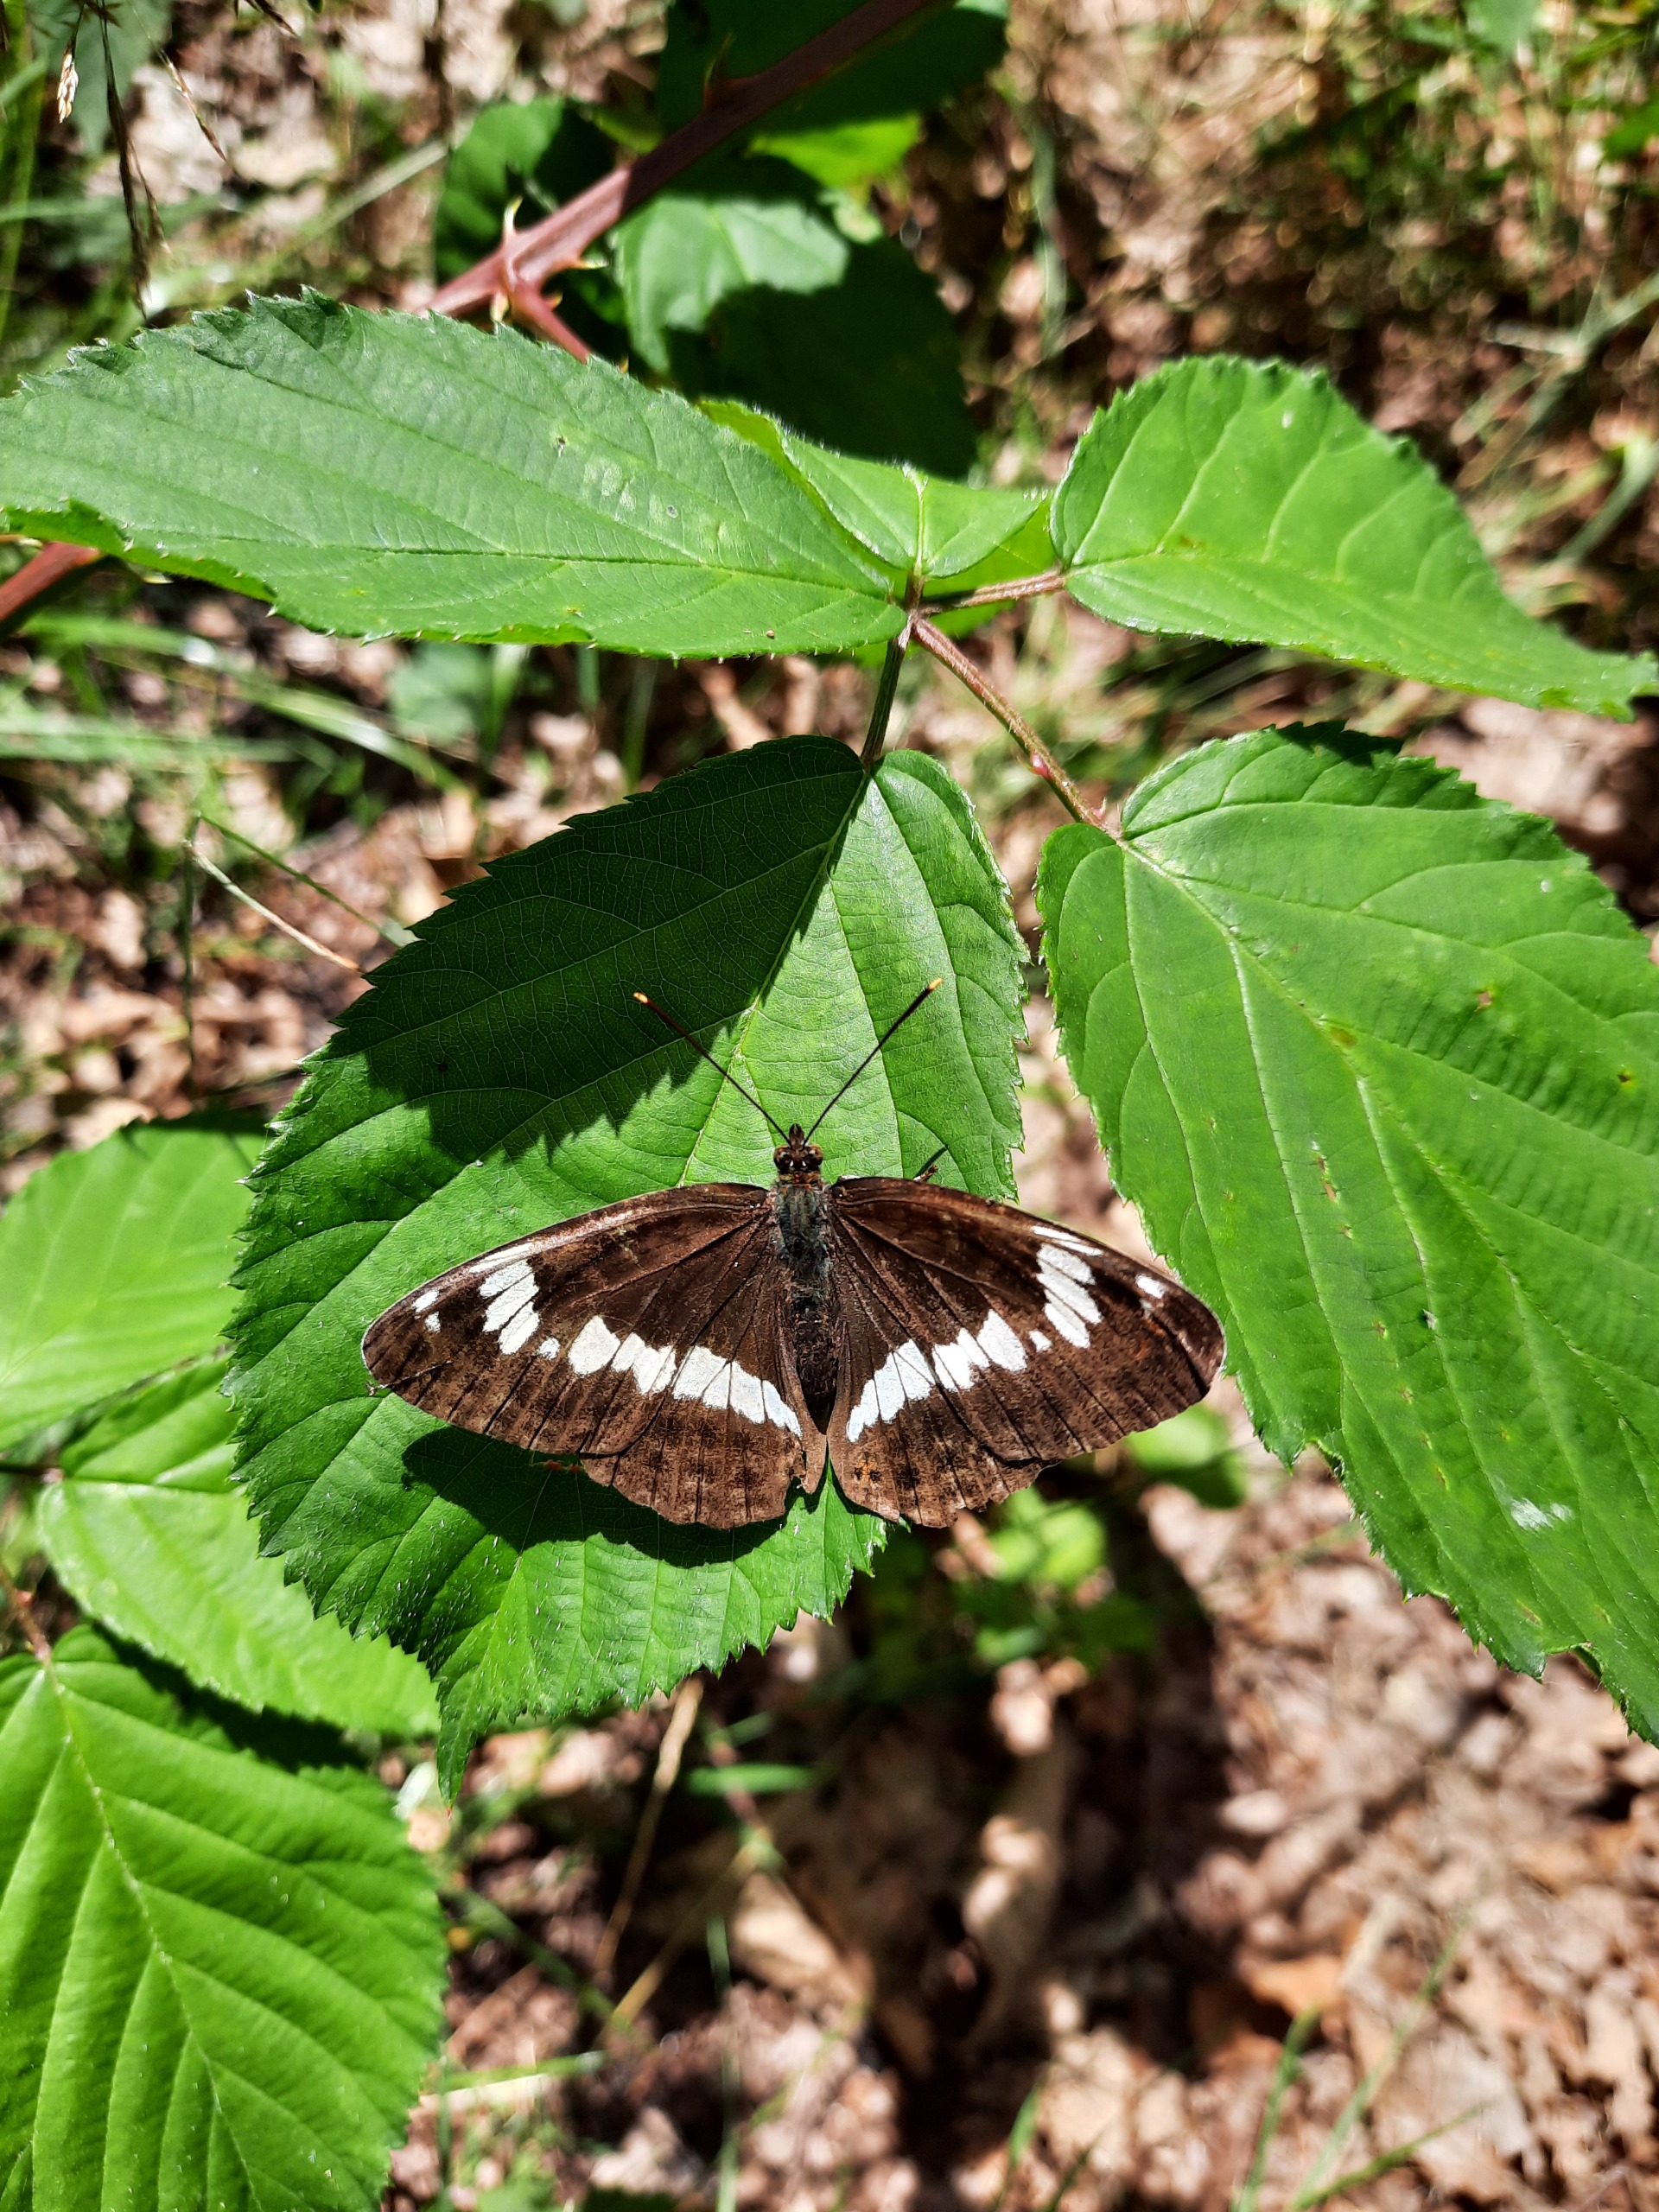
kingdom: Animalia
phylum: Arthropoda
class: Insecta
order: Lepidoptera
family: Nymphalidae
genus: Ladoga
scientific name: Ladoga camilla
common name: Hvid admiral
